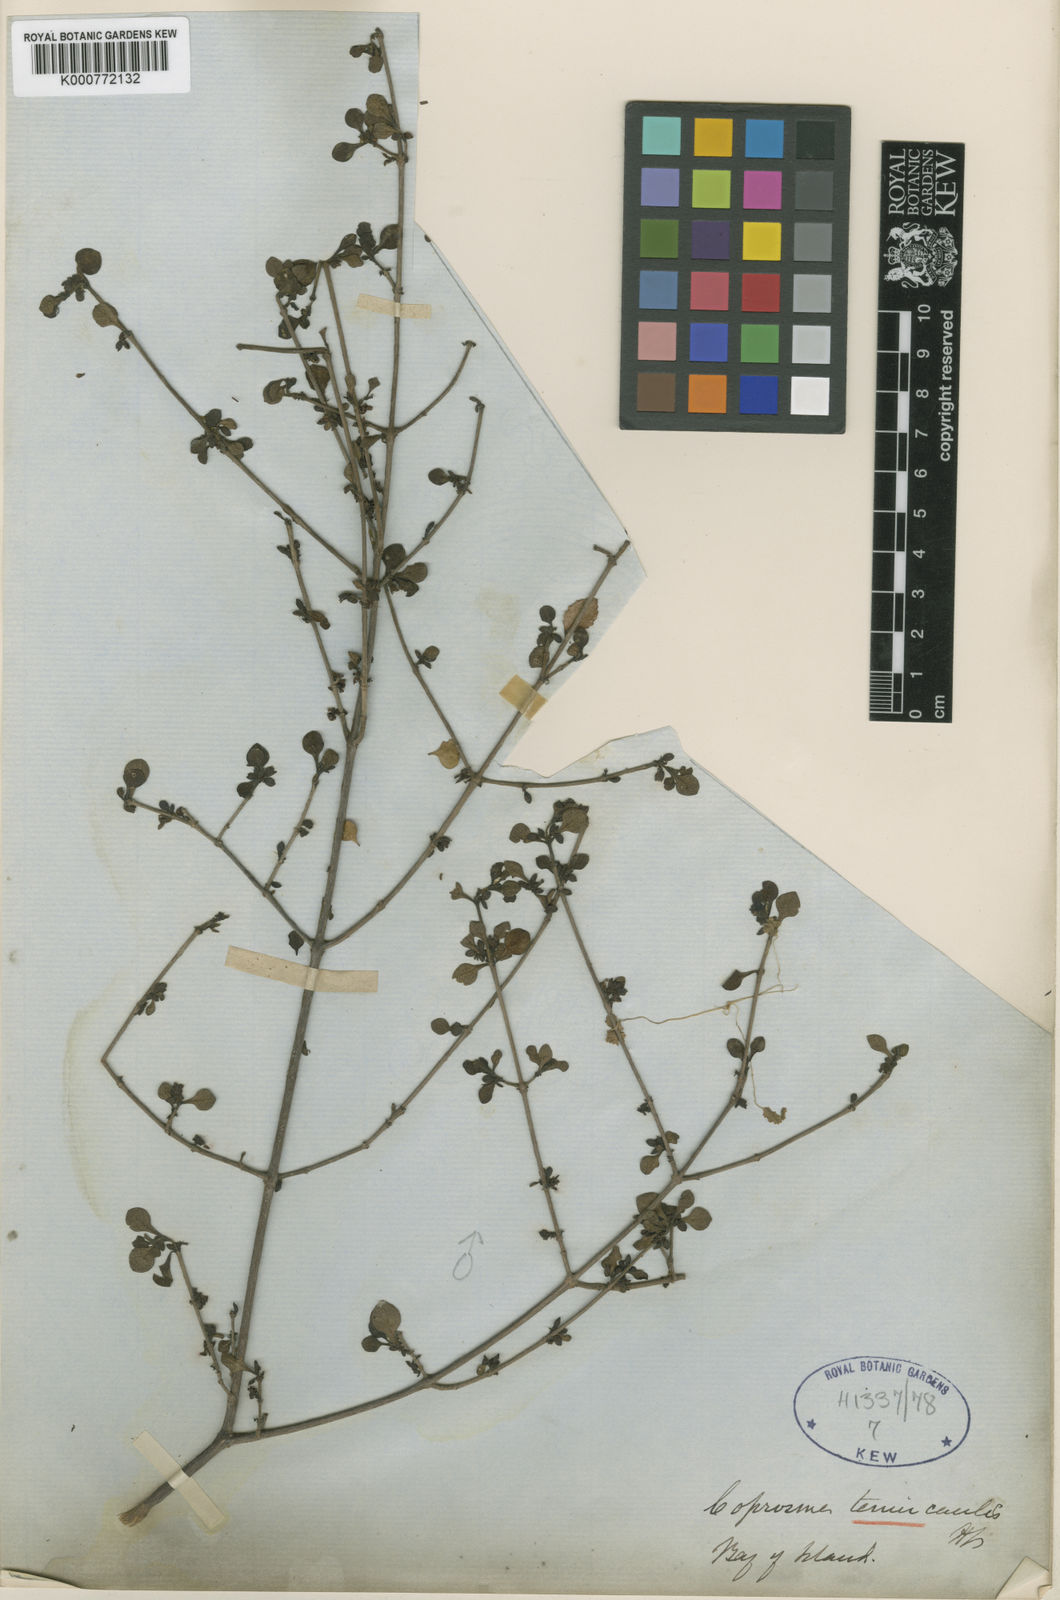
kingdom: Plantae
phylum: Tracheophyta
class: Magnoliopsida
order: Gentianales
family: Rubiaceae
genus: Coprosma
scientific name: Coprosma tenuicaulis
